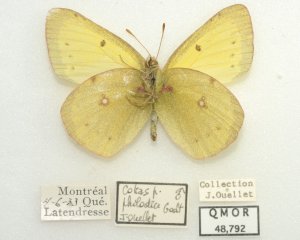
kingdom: Animalia
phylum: Arthropoda
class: Insecta
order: Lepidoptera
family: Pieridae
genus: Colias
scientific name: Colias philodice
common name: Clouded Sulphur
